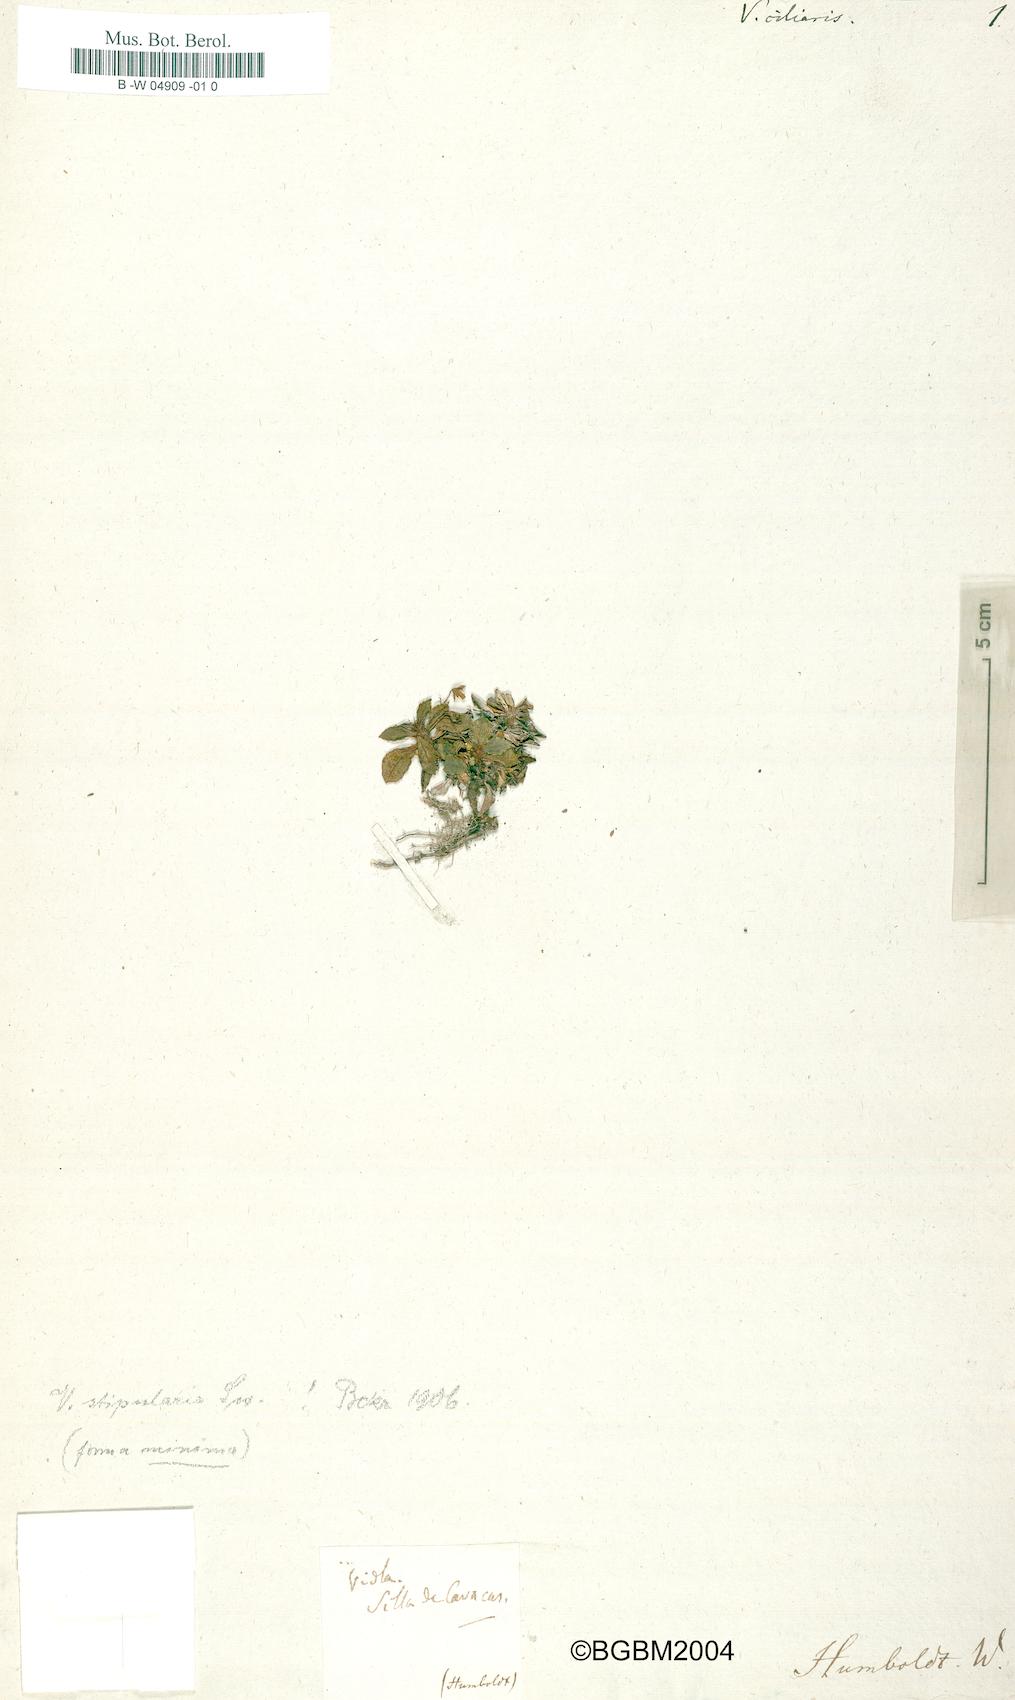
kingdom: Plantae
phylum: Tracheophyta
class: Magnoliopsida
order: Malpighiales
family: Violaceae
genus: Viola
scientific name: Viola stipularis
